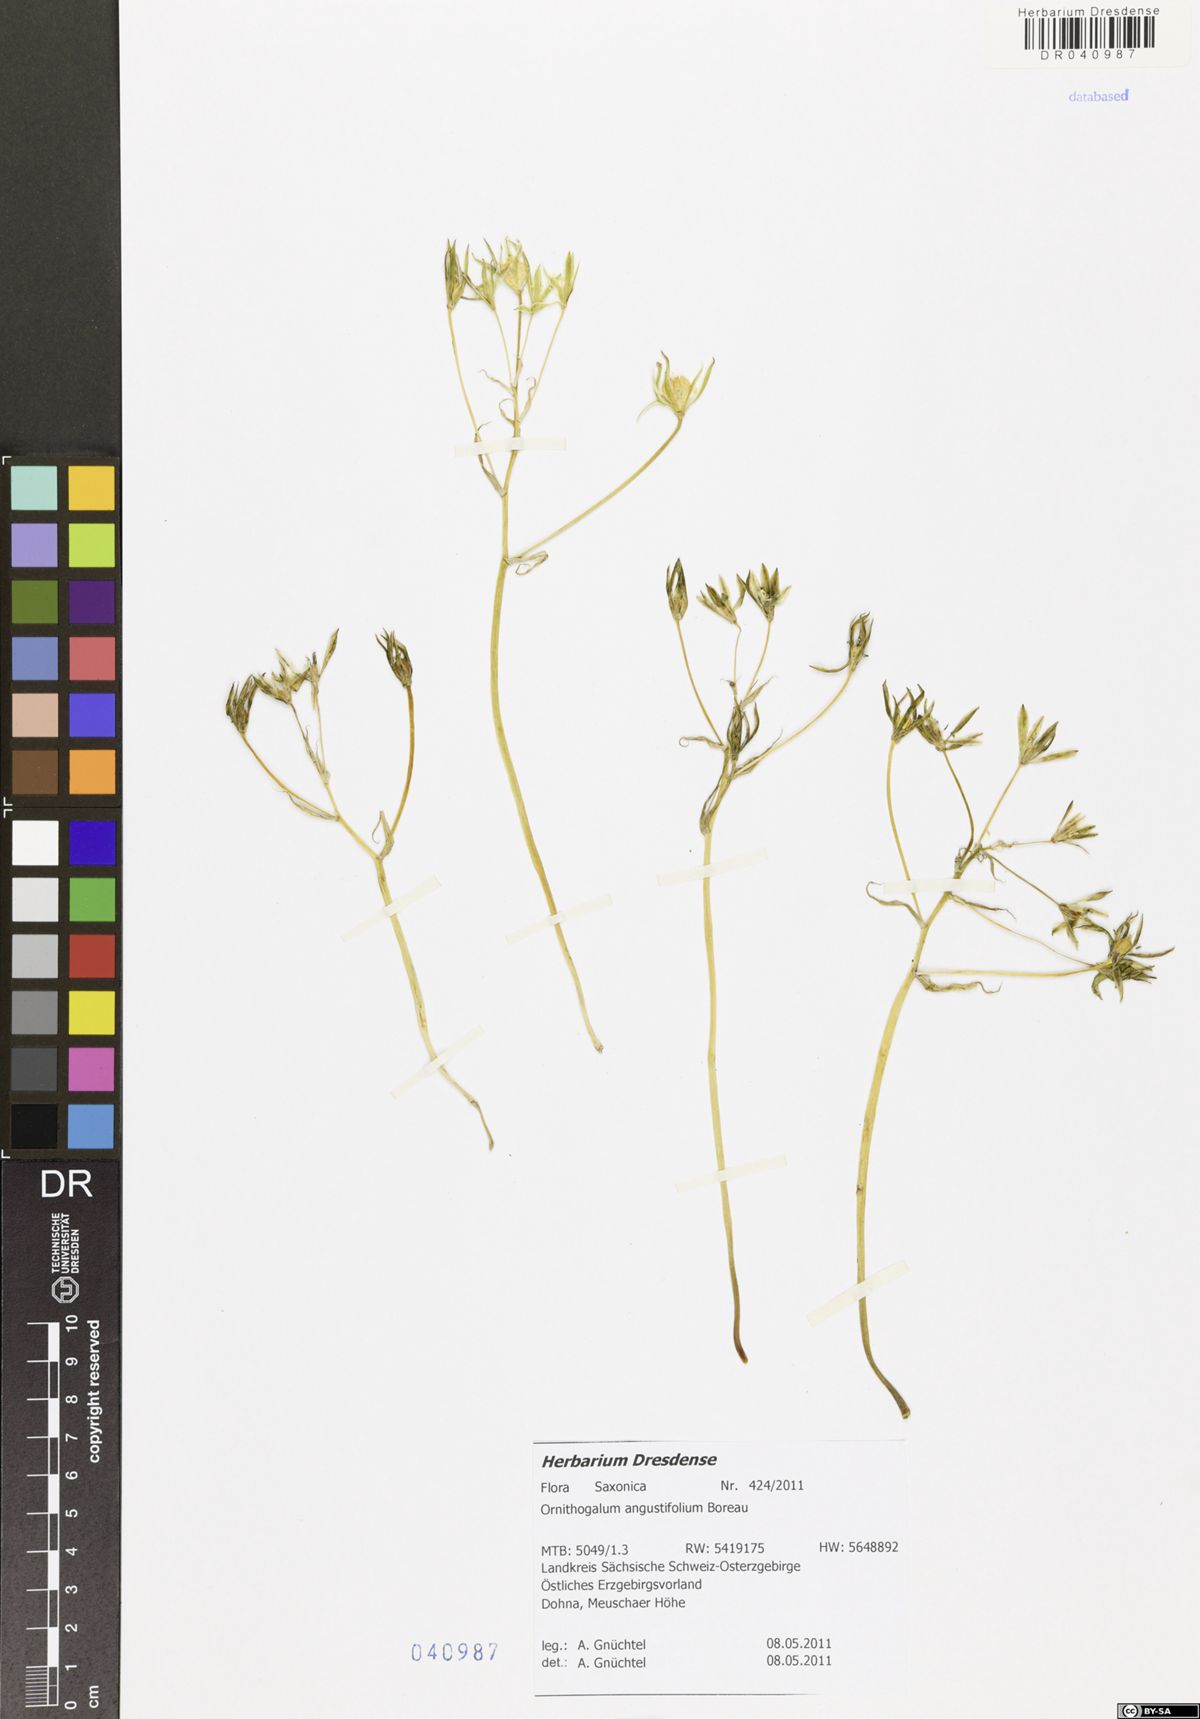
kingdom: Plantae
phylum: Tracheophyta
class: Liliopsida
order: Asparagales
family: Asparagaceae
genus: Ornithogalum
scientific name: Ornithogalum umbellatum
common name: Garden star-of-bethlehem
